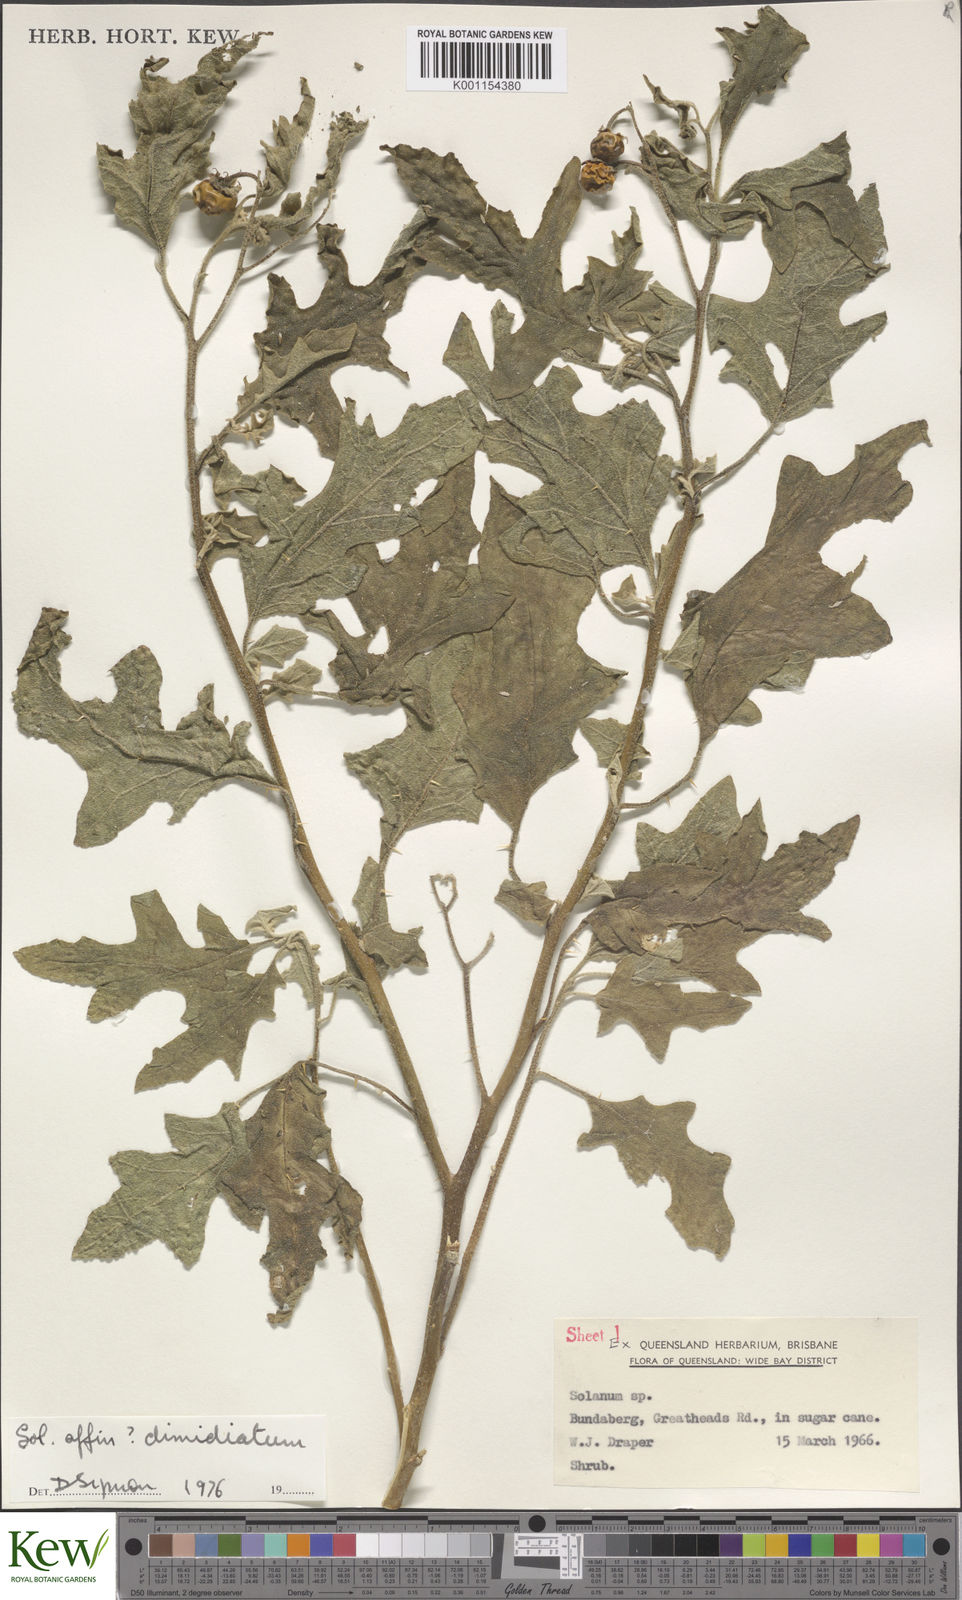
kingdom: Plantae
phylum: Tracheophyta
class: Magnoliopsida
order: Solanales
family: Solanaceae
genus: Solanum
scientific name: Solanum dimidiatum
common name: Carolina horse-nettle
